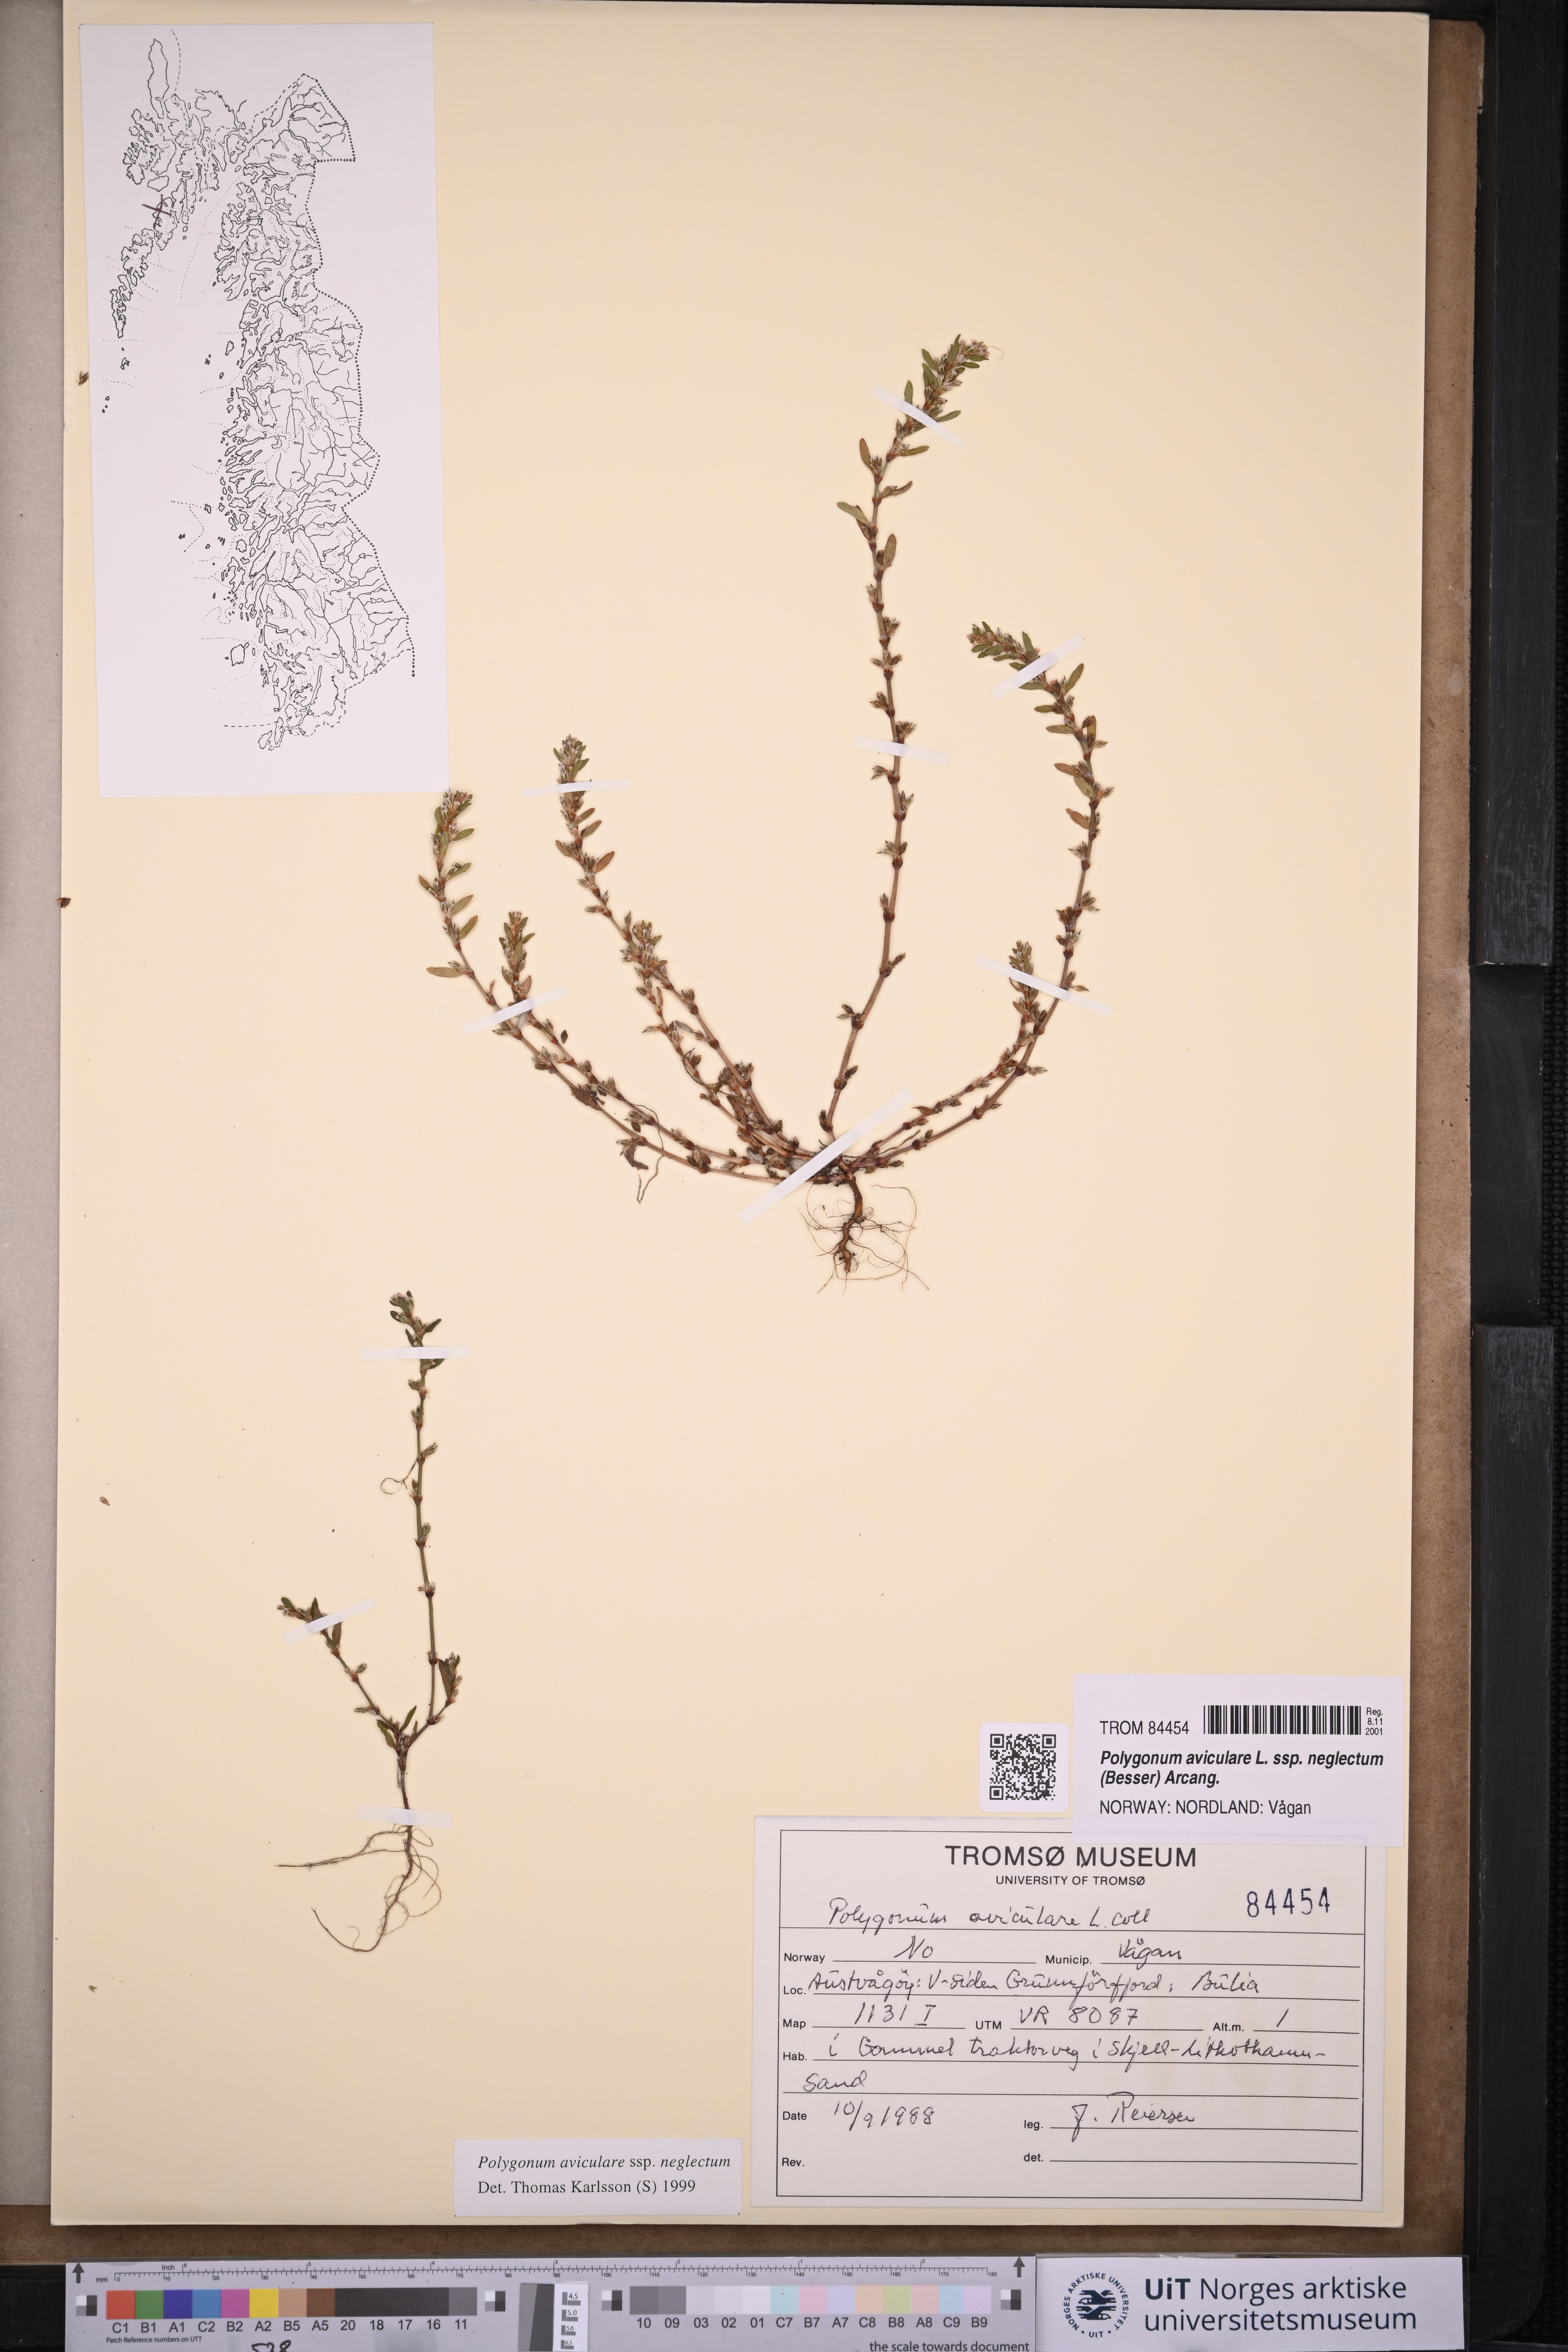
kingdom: Plantae
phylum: Tracheophyta
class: Magnoliopsida
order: Caryophyllales
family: Polygonaceae
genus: Polygonum
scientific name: Polygonum aviculare
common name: Prostrate knotweed
